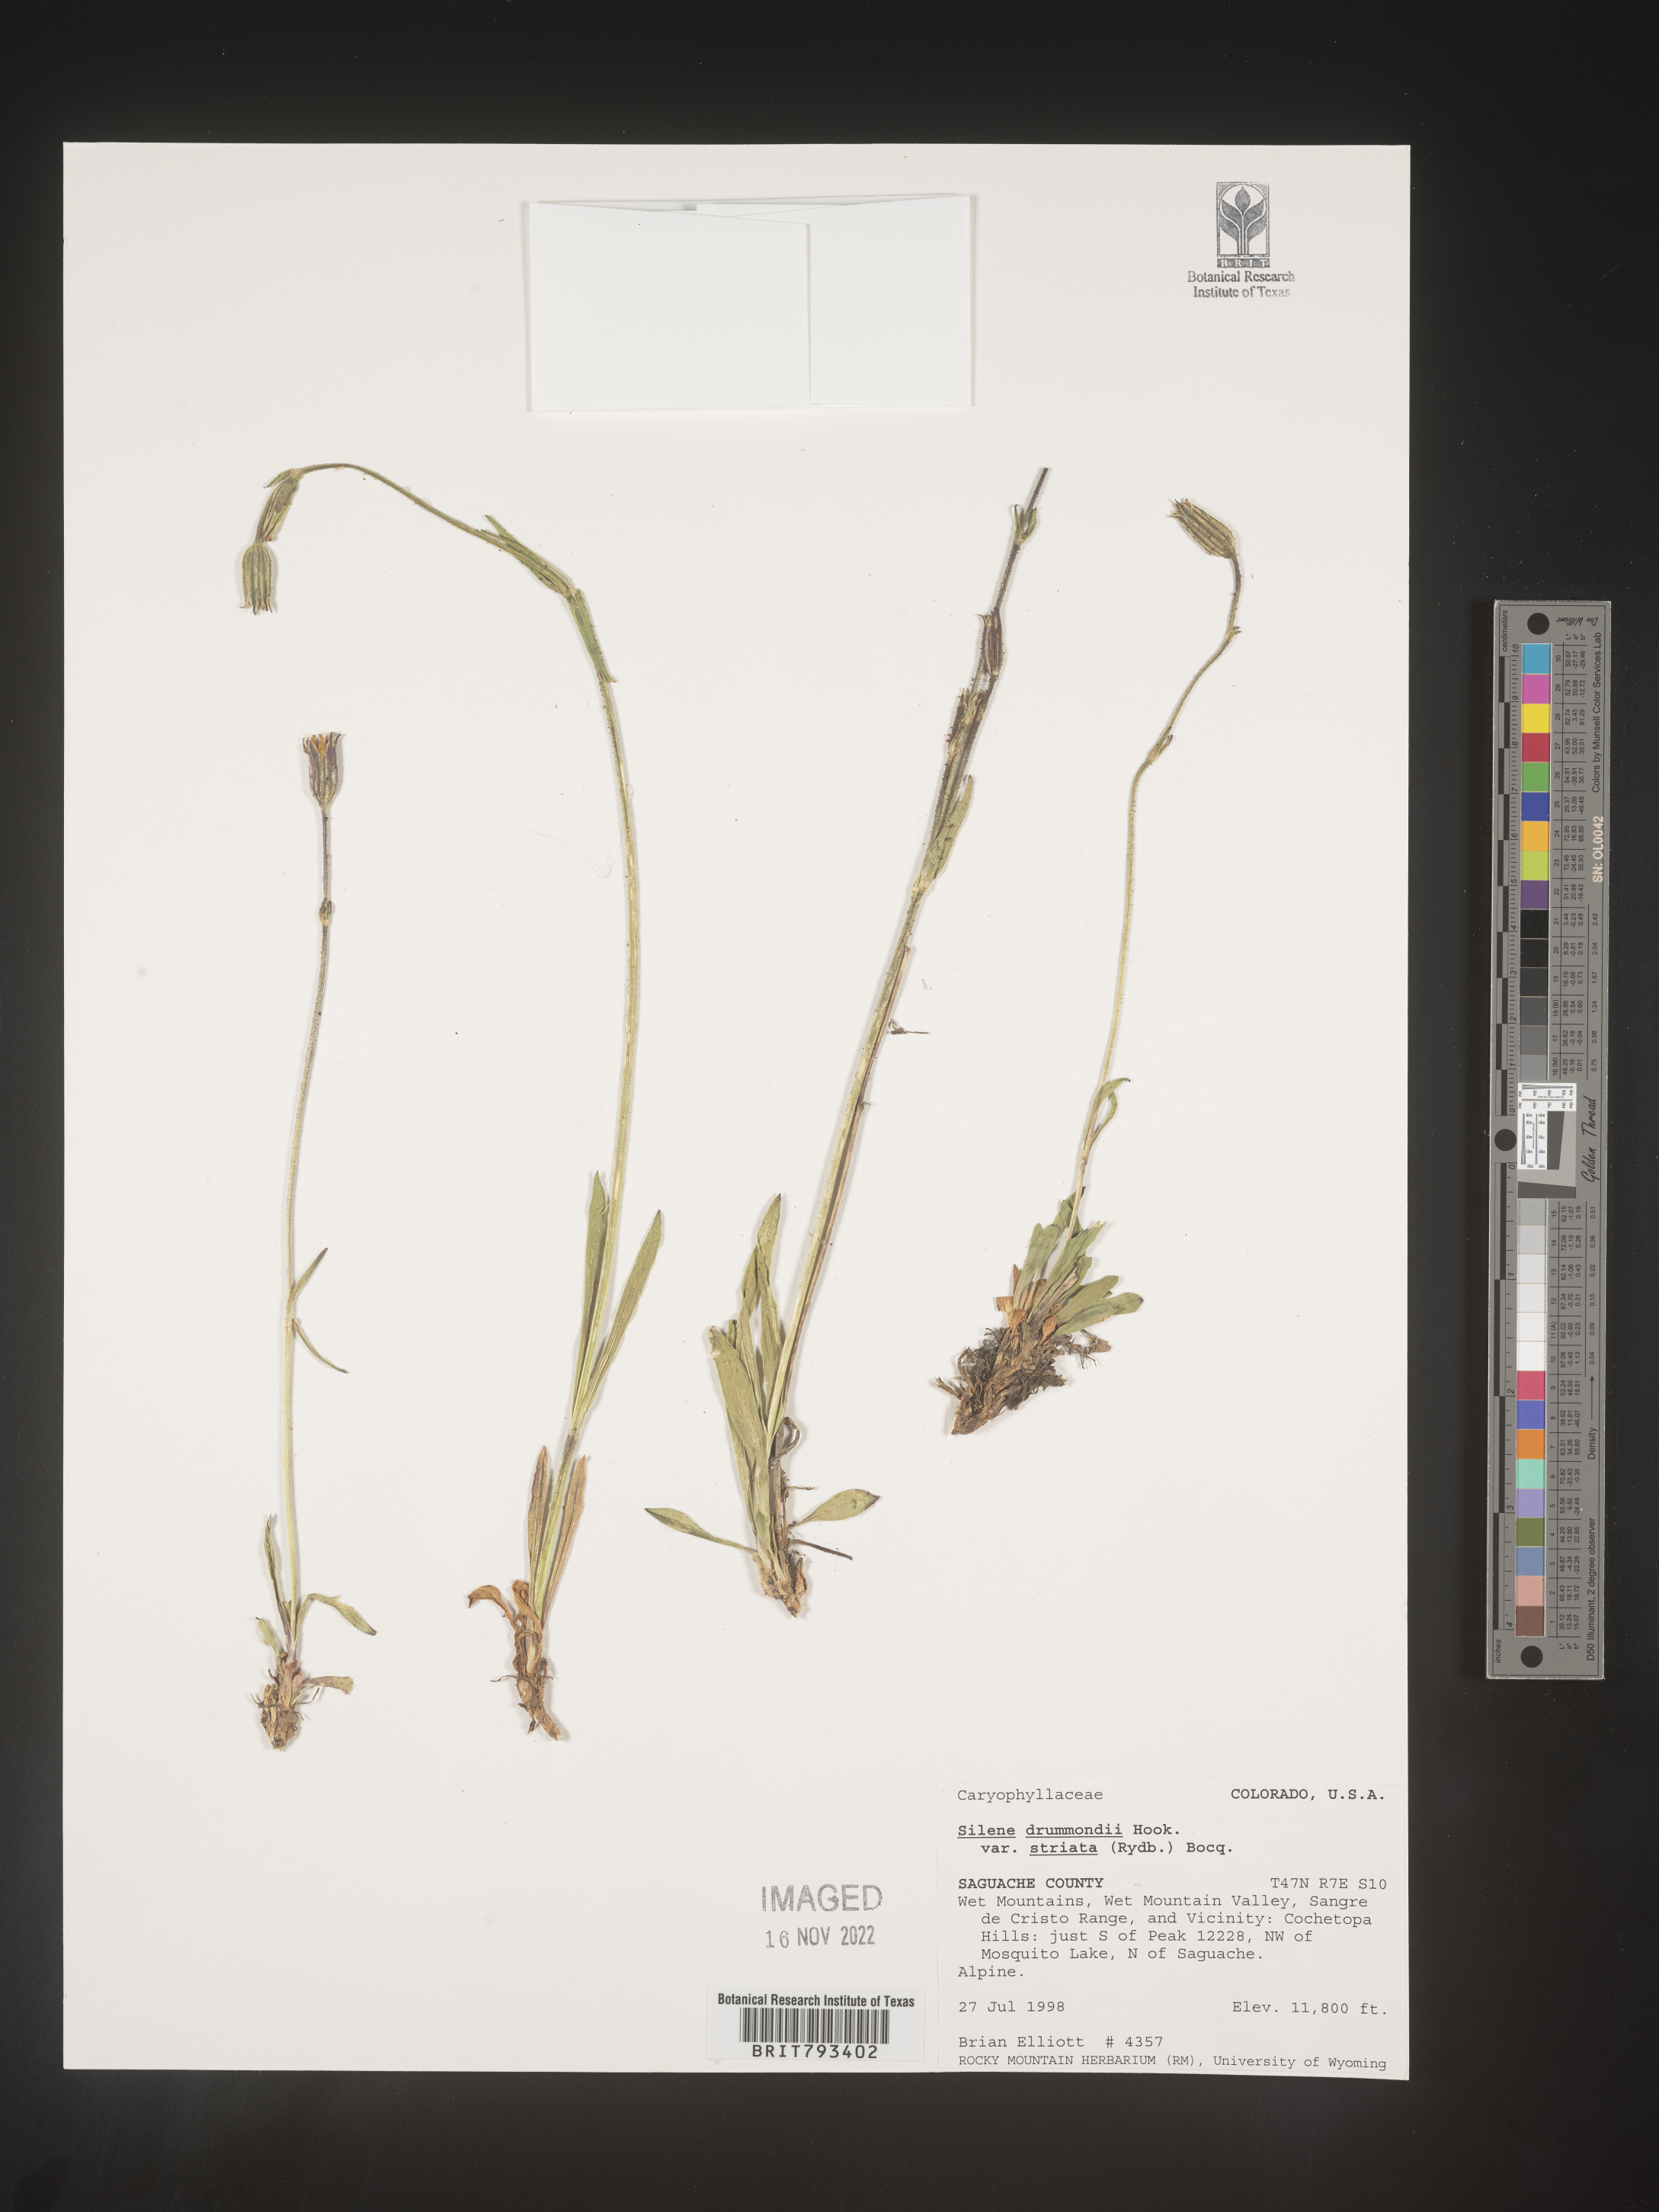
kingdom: Plantae
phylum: Tracheophyta
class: Magnoliopsida
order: Caryophyllales
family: Caryophyllaceae
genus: Silene
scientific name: Silene drummondii
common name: Drummond's catchfly
